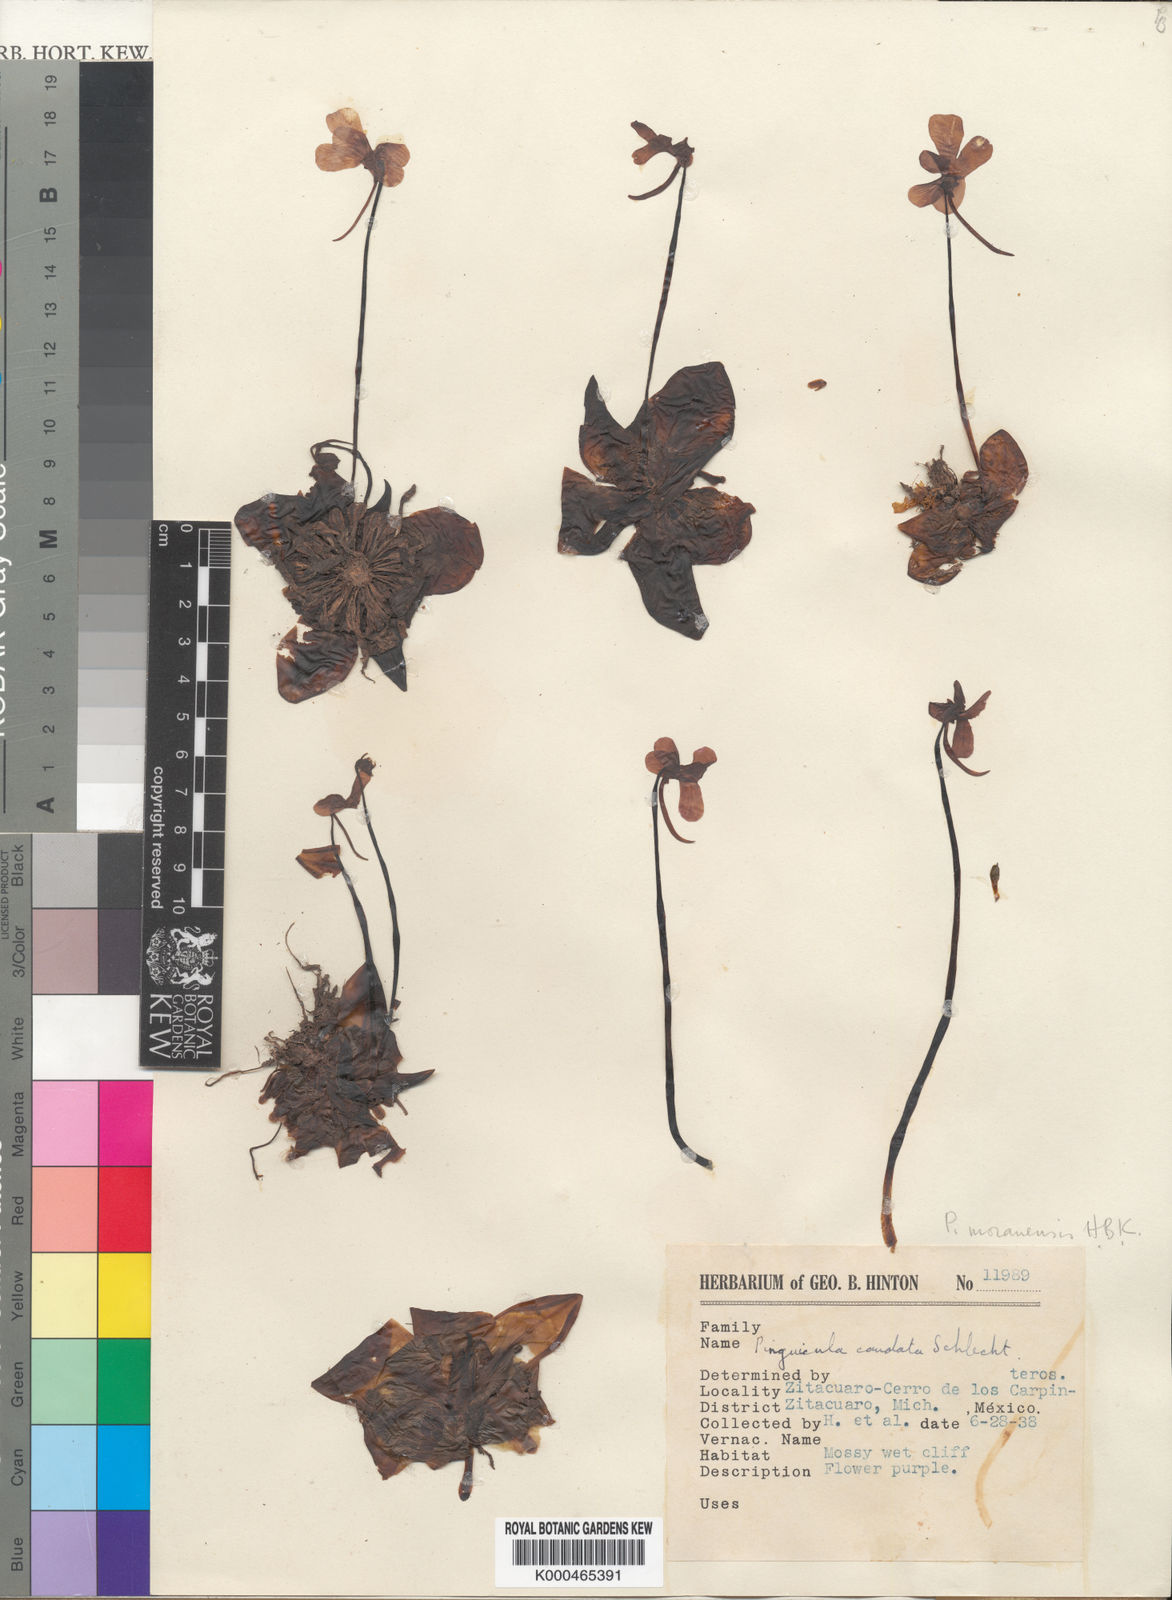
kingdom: Plantae
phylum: Tracheophyta
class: Magnoliopsida
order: Lamiales
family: Lentibulariaceae
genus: Pinguicula
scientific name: Pinguicula caudata
